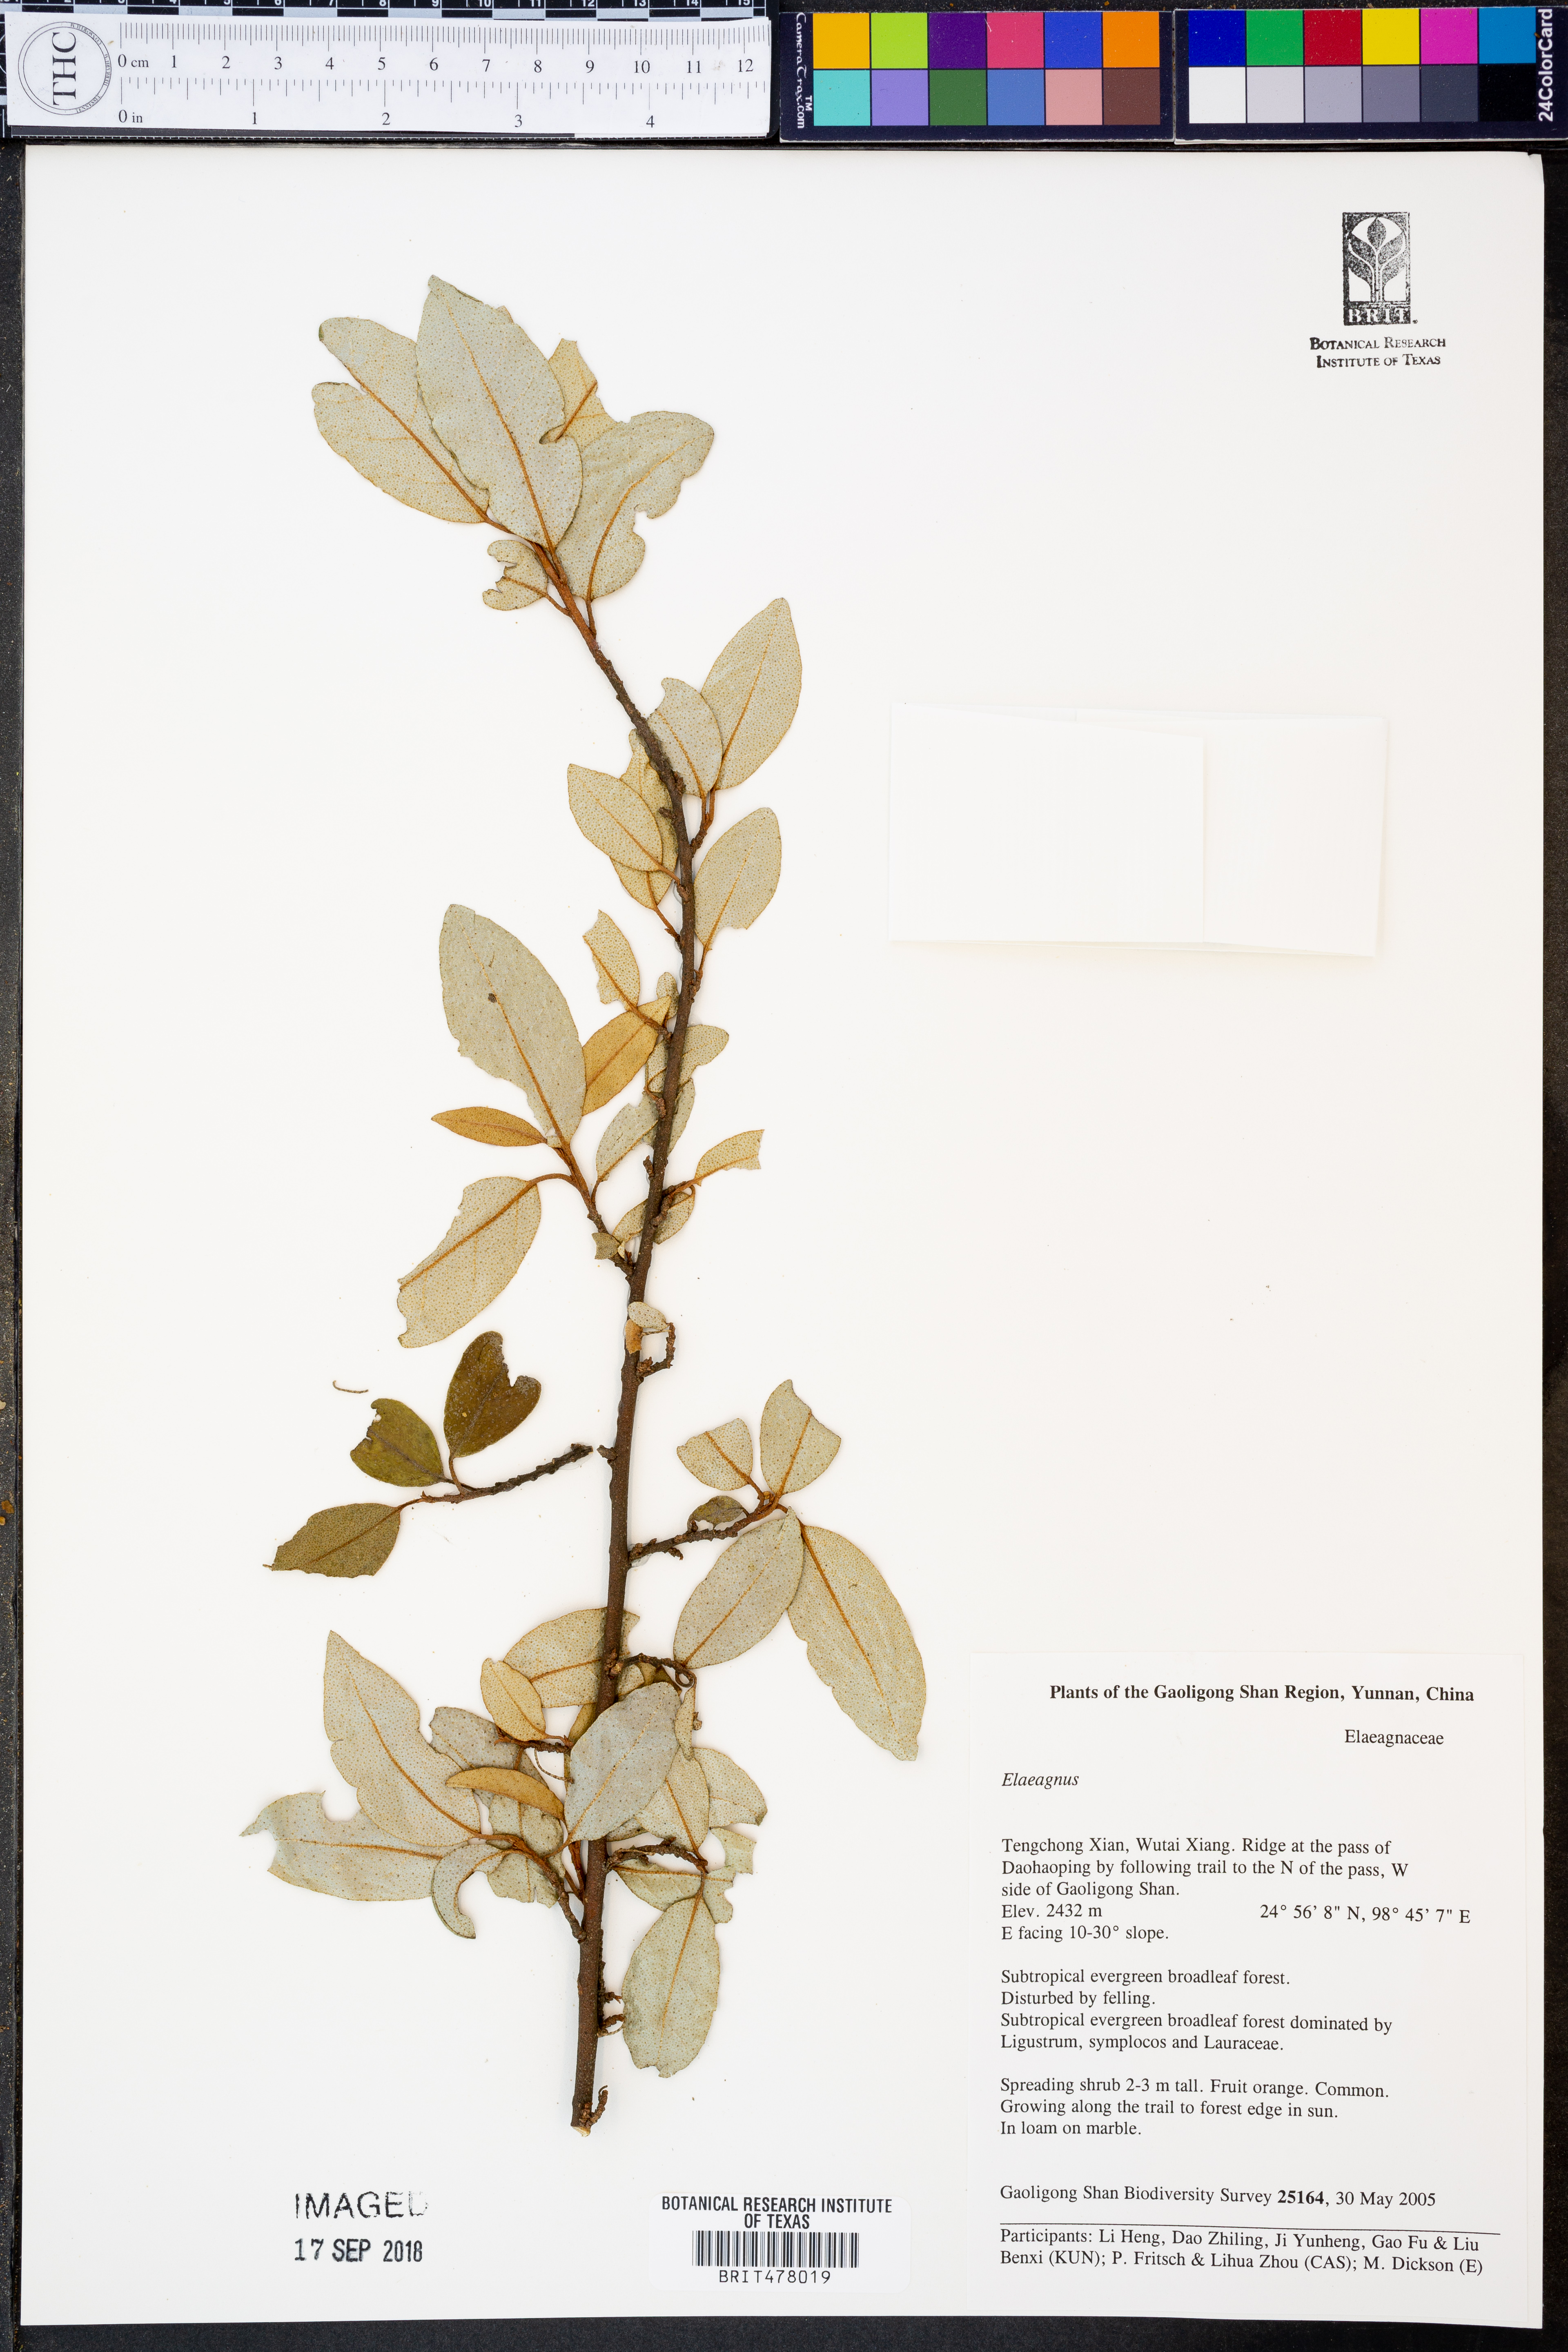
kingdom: Plantae
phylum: Tracheophyta
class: Magnoliopsida
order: Rosales
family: Elaeagnaceae
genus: Elaeagnus
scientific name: Elaeagnus
